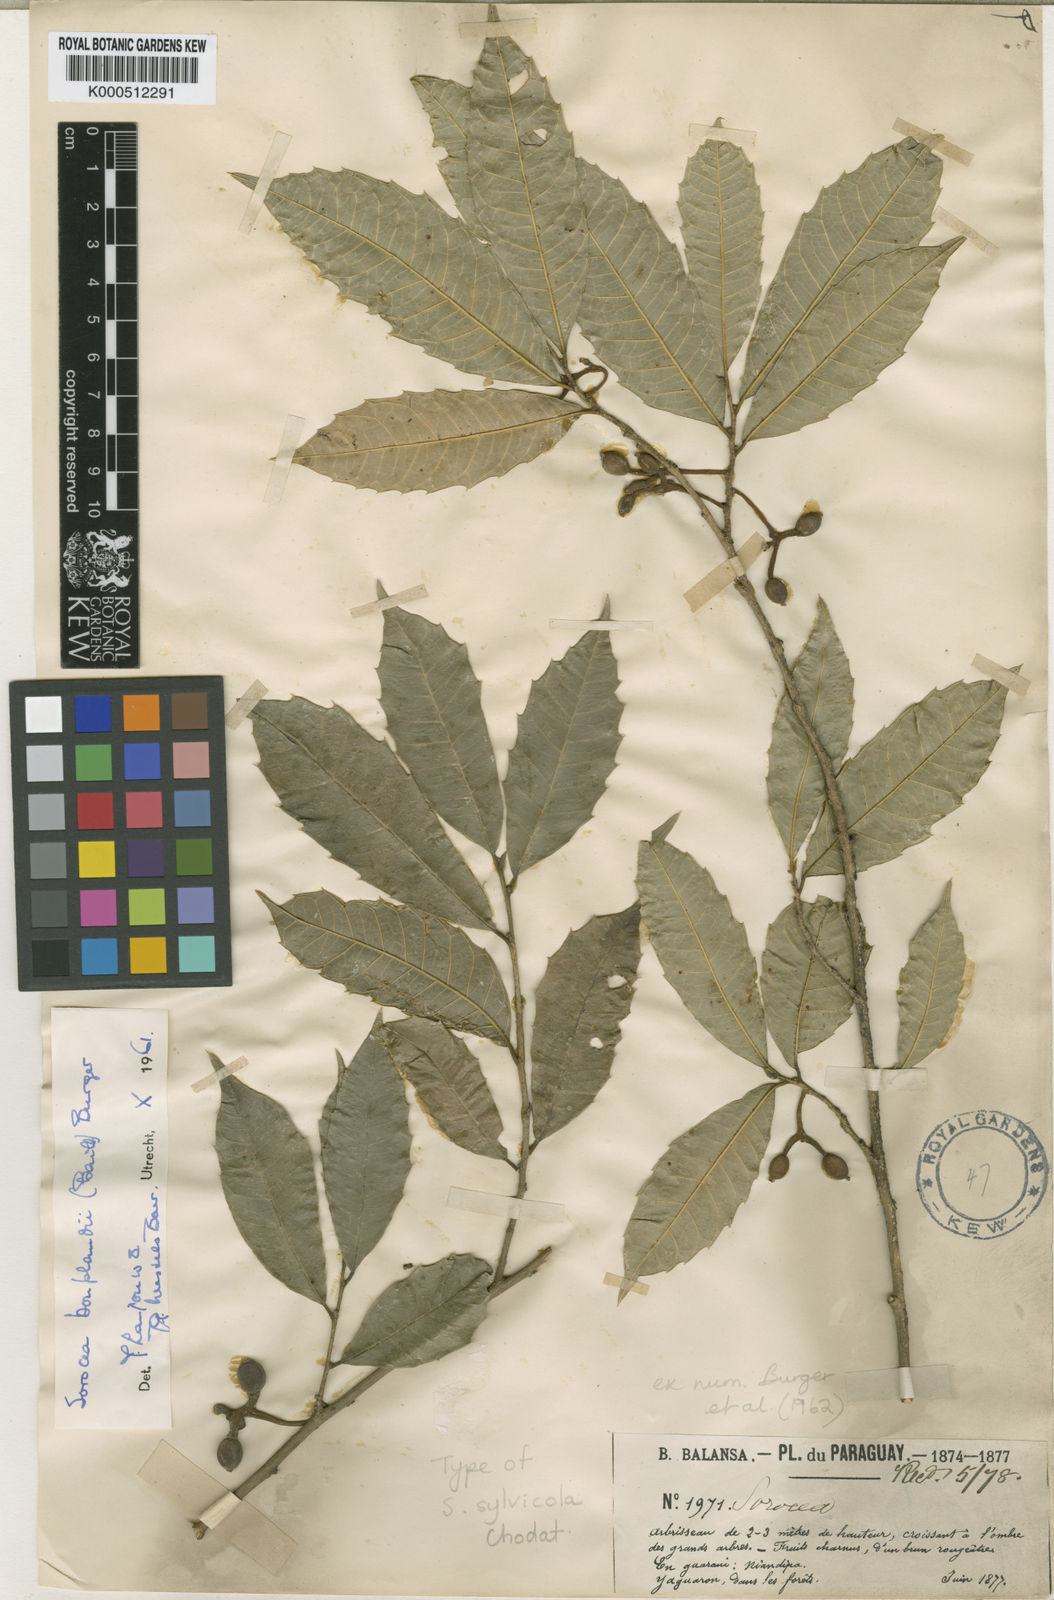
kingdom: Plantae
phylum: Tracheophyta
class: Magnoliopsida
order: Rosales
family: Moraceae
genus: Sorocea
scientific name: Sorocea
